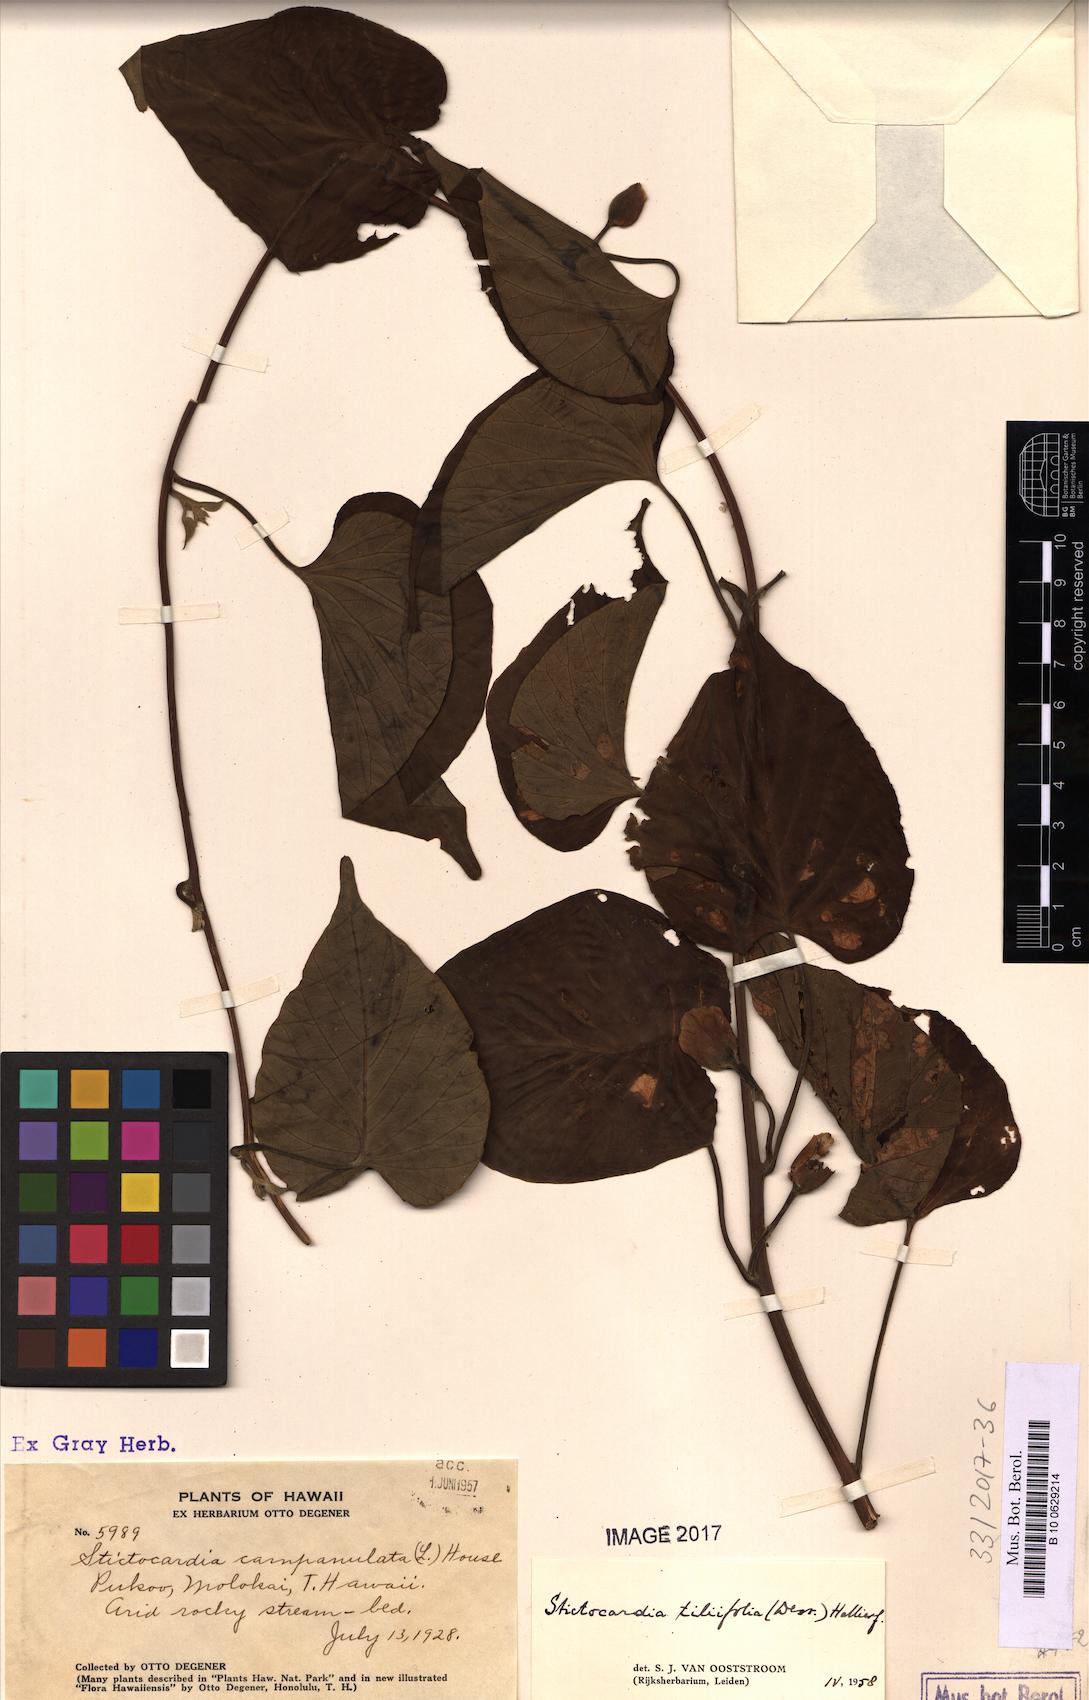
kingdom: Plantae
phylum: Tracheophyta
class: Magnoliopsida
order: Solanales
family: Convolvulaceae
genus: Stictocardia
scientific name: Stictocardia tiliifolia
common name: Spottedheart
